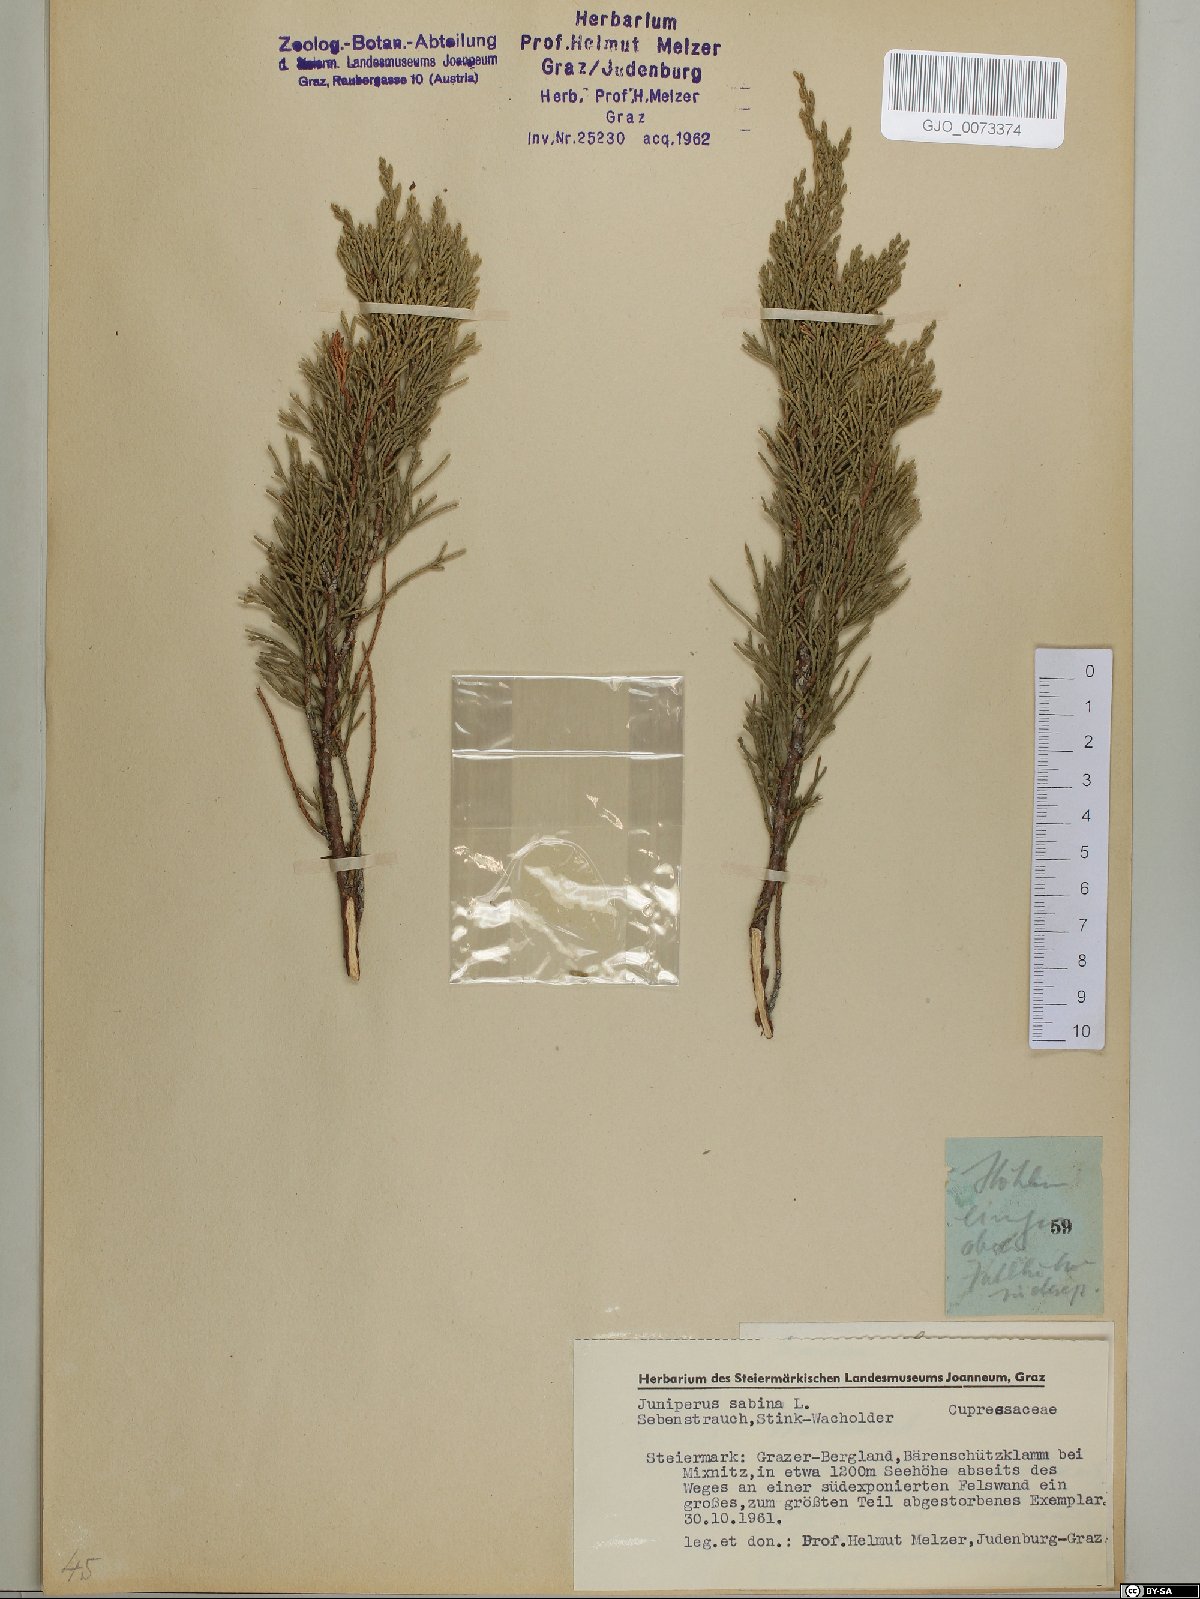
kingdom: Plantae
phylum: Tracheophyta
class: Pinopsida
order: Pinales
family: Cupressaceae
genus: Juniperus
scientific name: Juniperus sabina
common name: Savin
